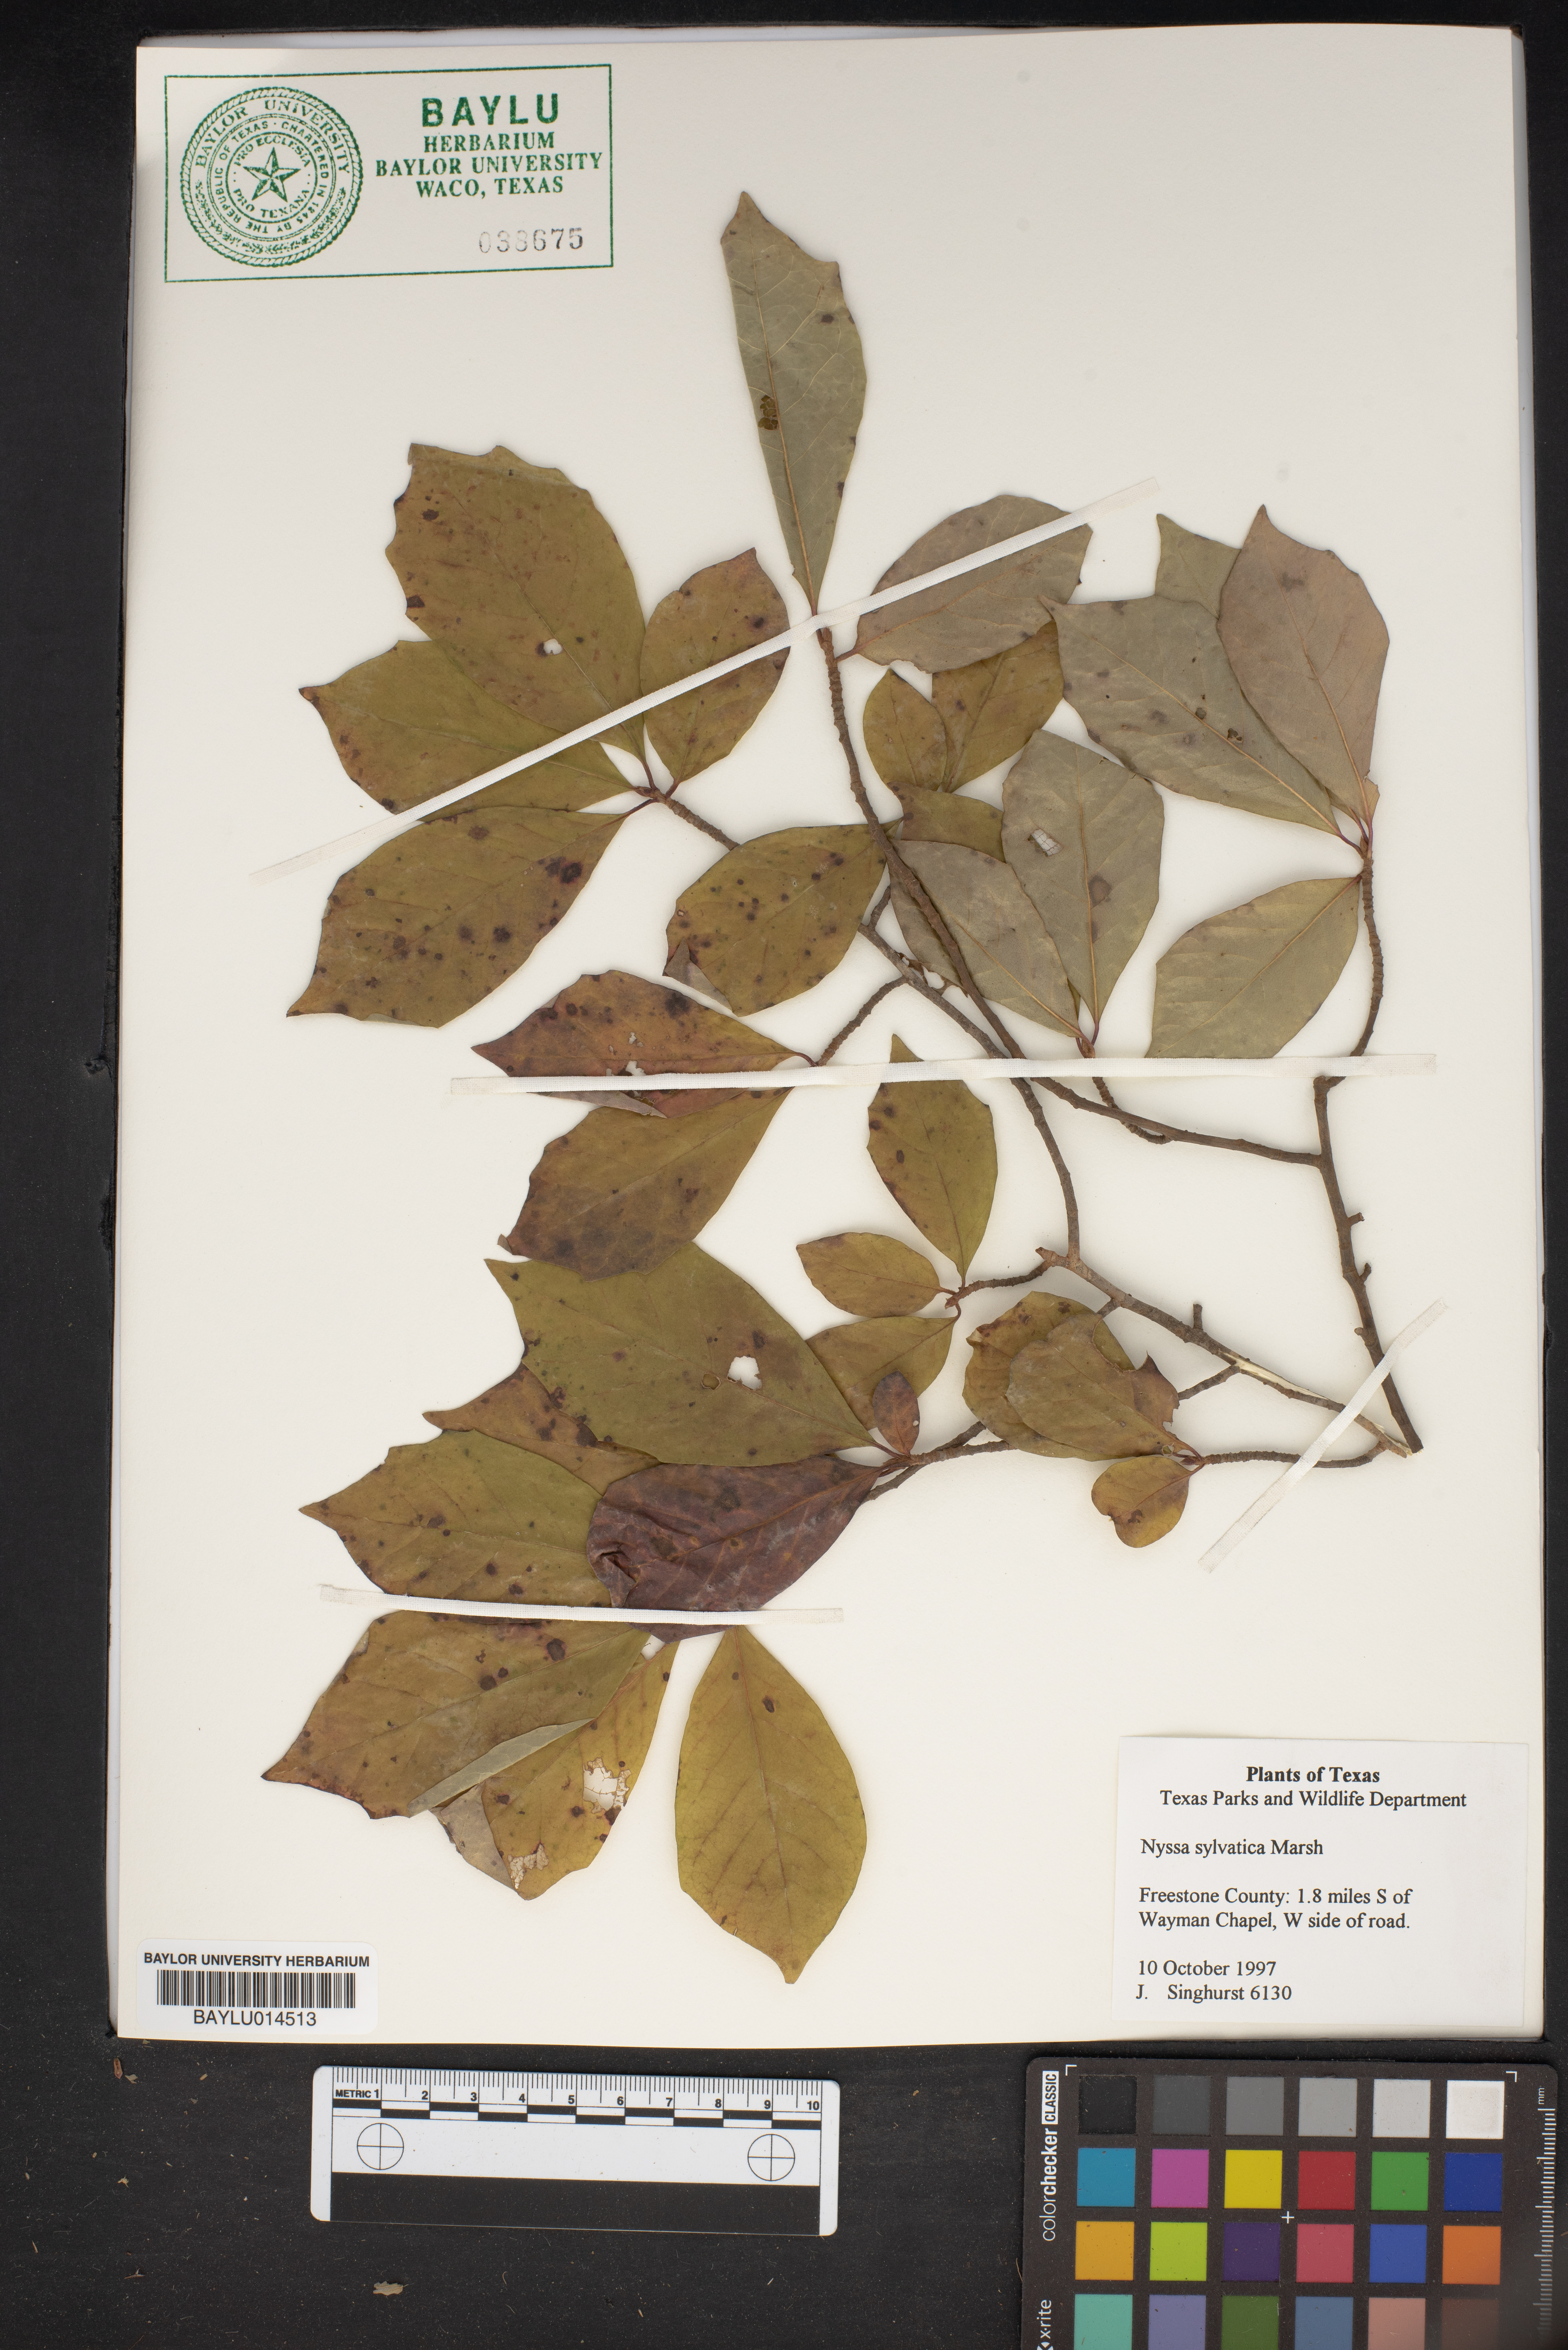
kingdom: Plantae
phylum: Tracheophyta
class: Magnoliopsida
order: Cornales
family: Nyssaceae
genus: Nyssa
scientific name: Nyssa sylvatica
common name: Black tupelo
